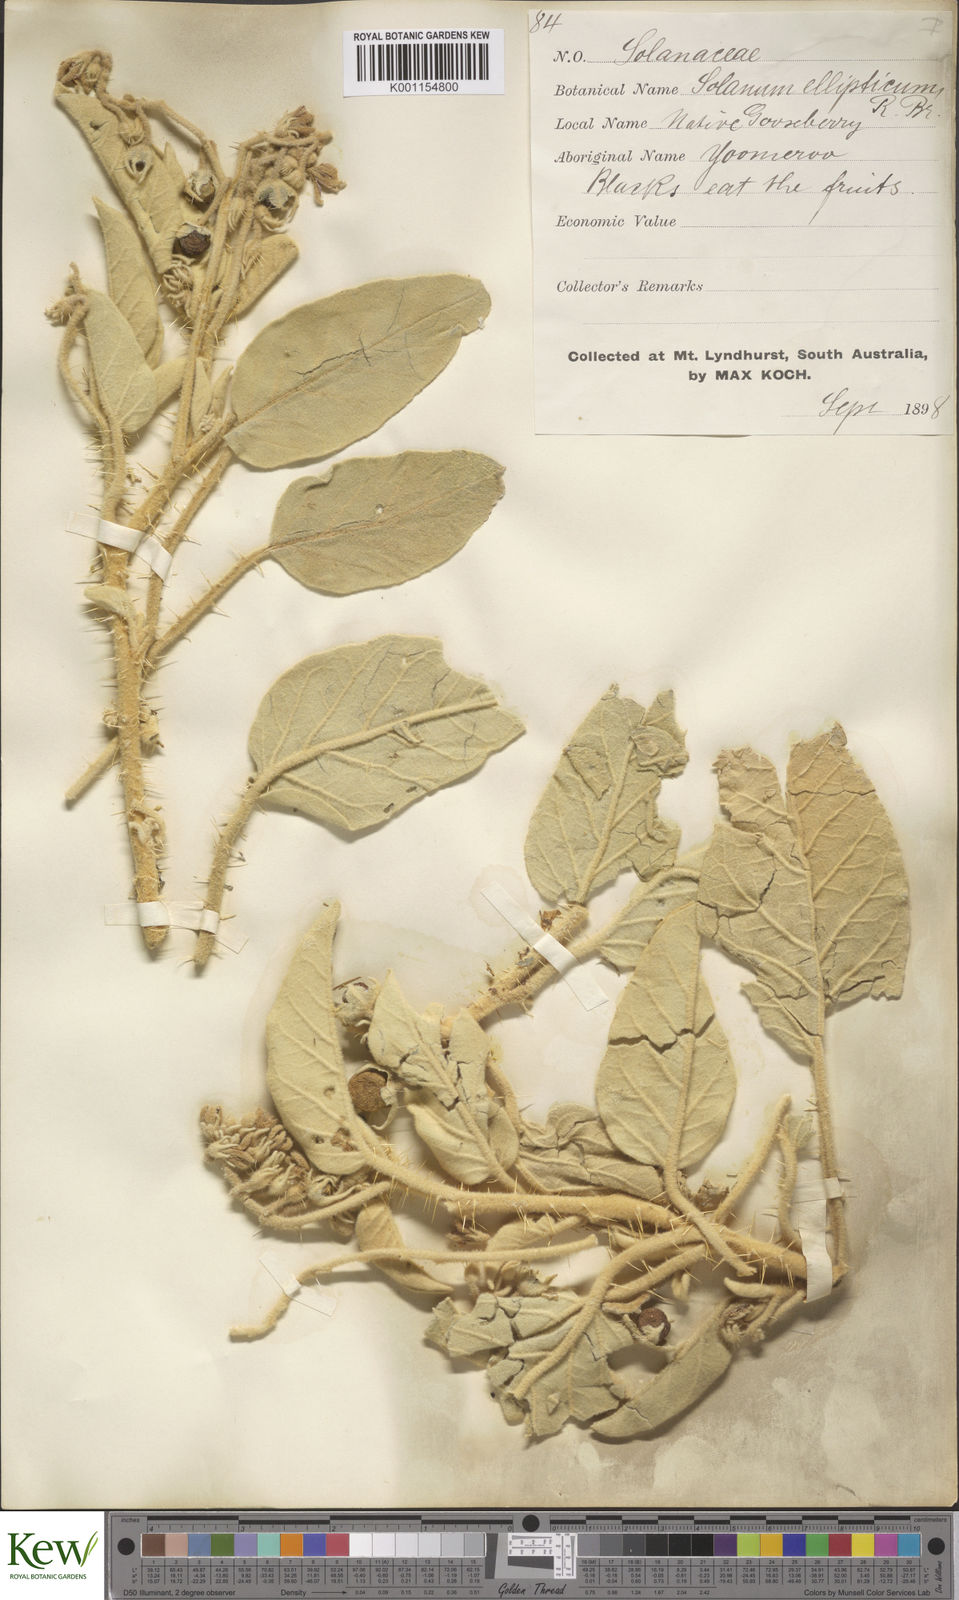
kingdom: Plantae
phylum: Tracheophyta
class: Magnoliopsida
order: Solanales
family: Solanaceae
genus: Solanum
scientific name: Solanum quadriloculatum
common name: Wild tomato
